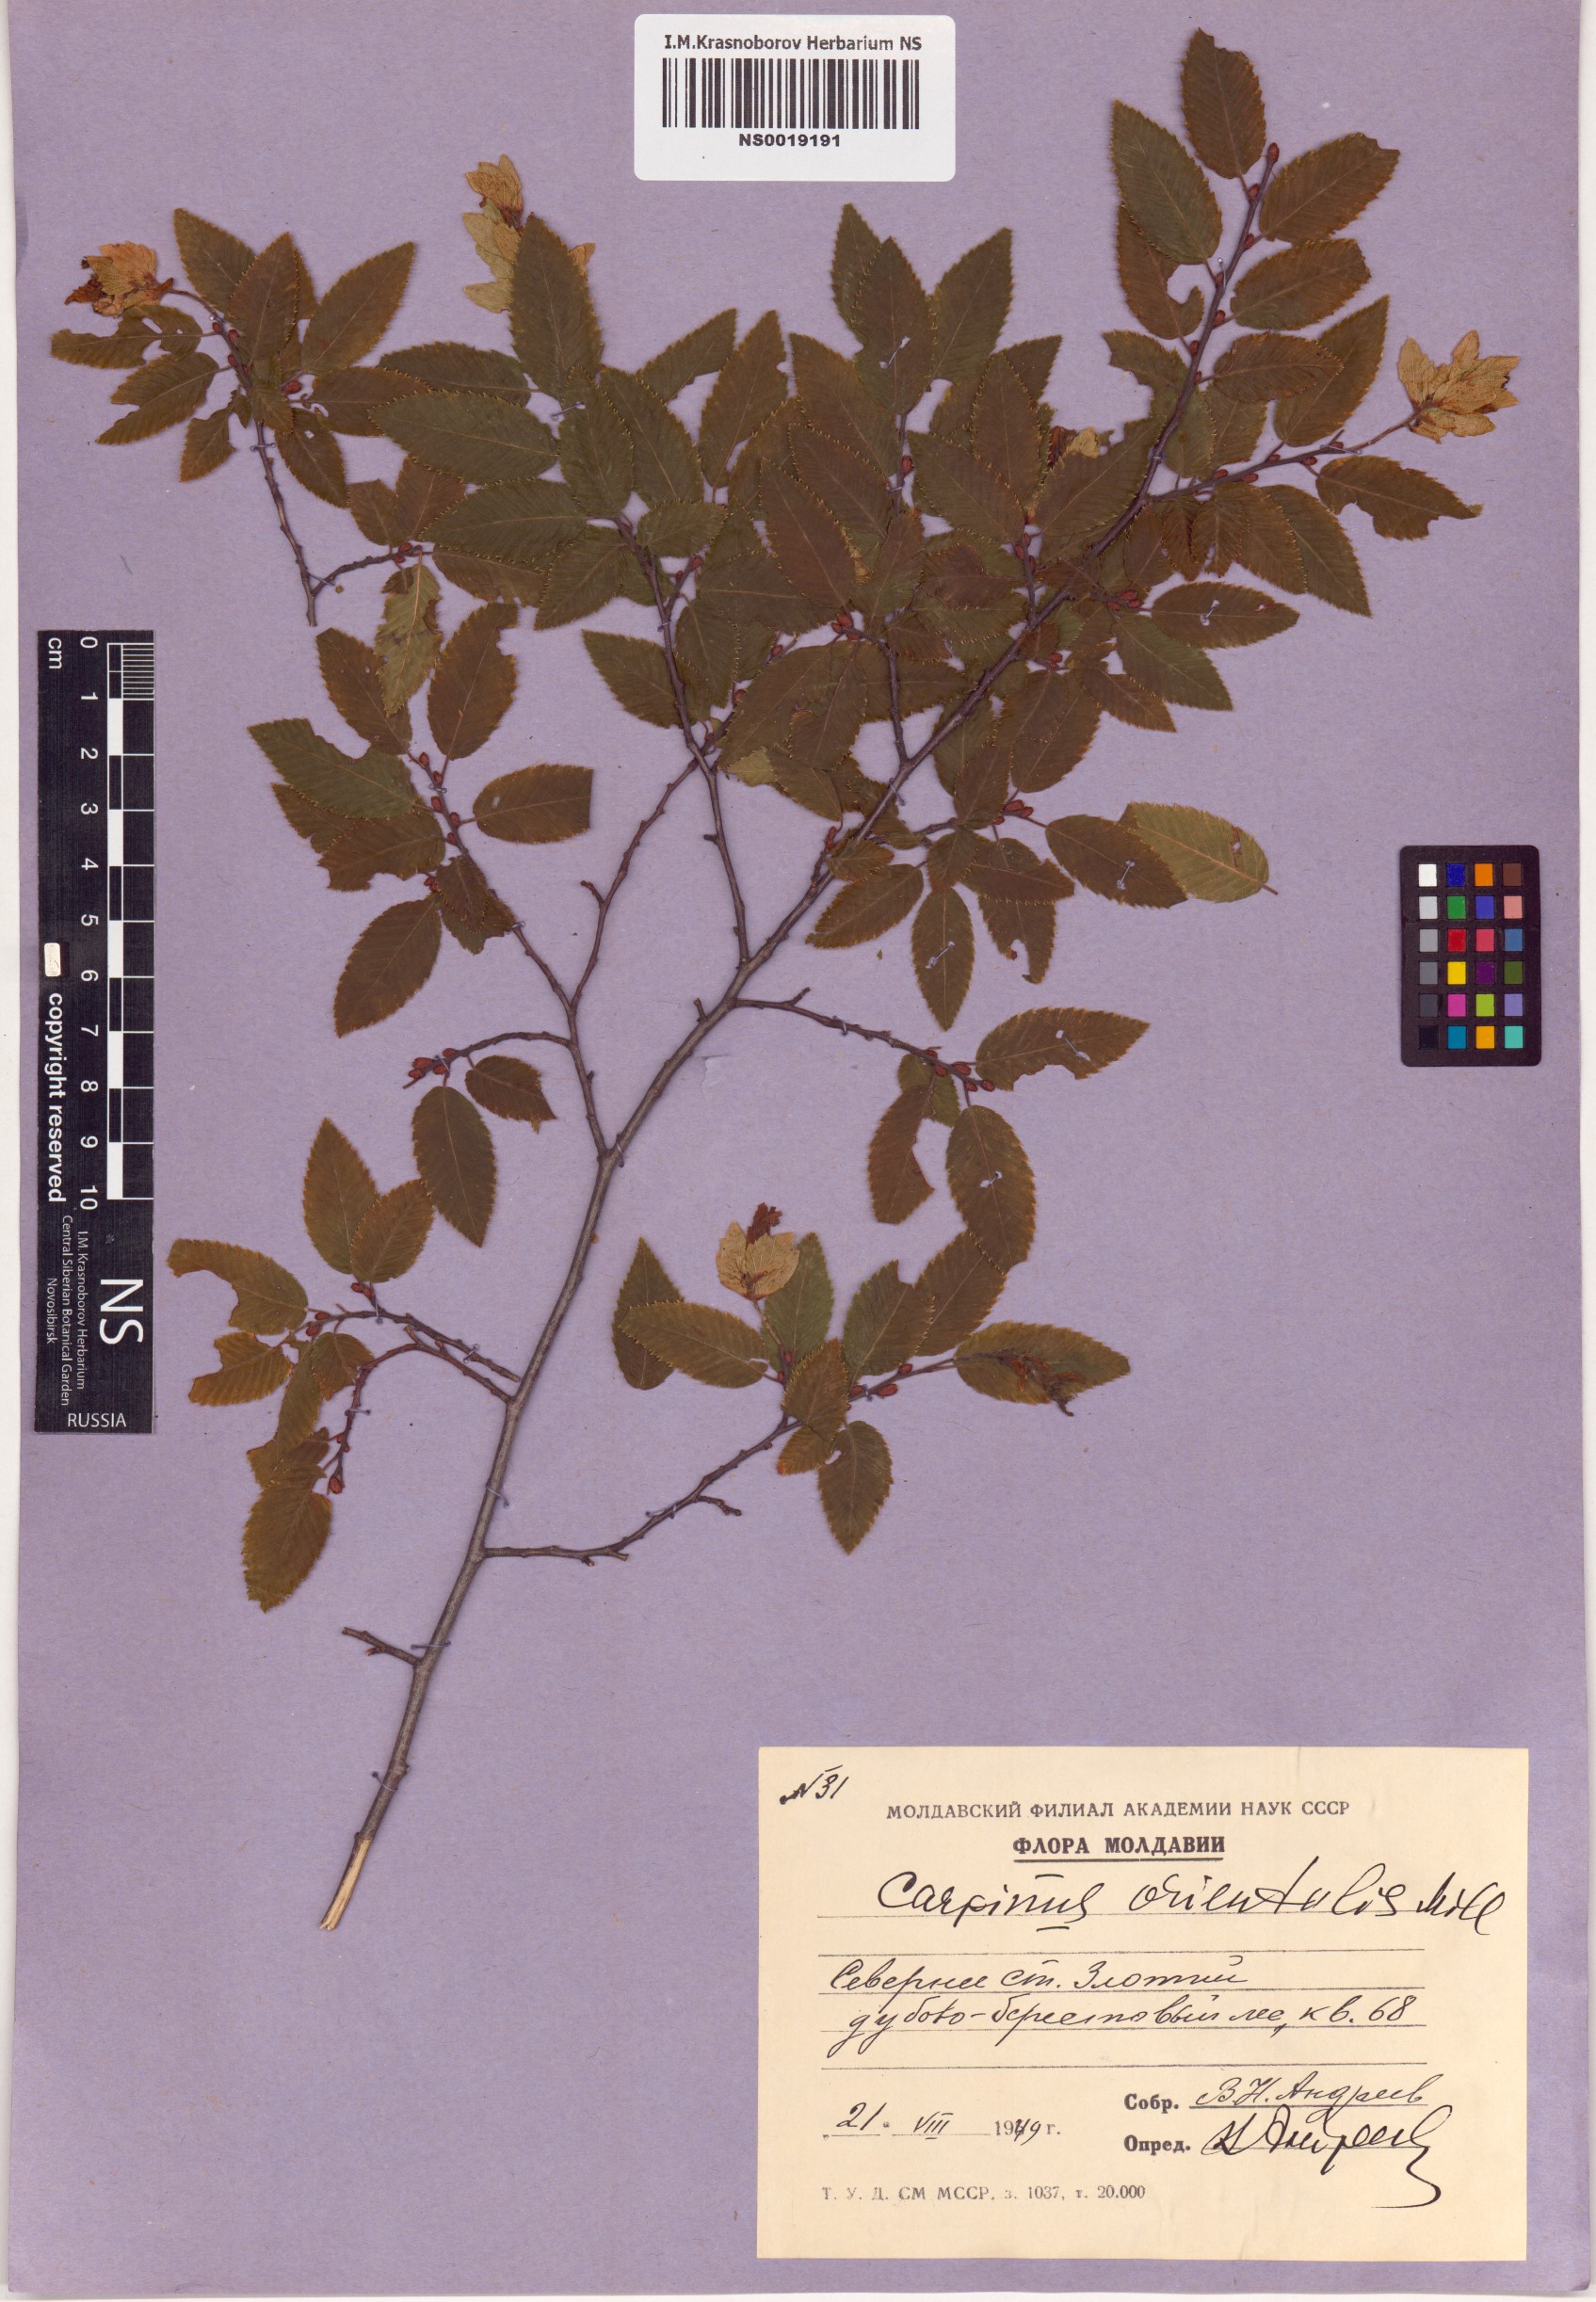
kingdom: Plantae
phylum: Tracheophyta
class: Magnoliopsida
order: Fagales
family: Betulaceae
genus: Carpinus
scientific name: Carpinus orientalis
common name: Eastern hornbeam
